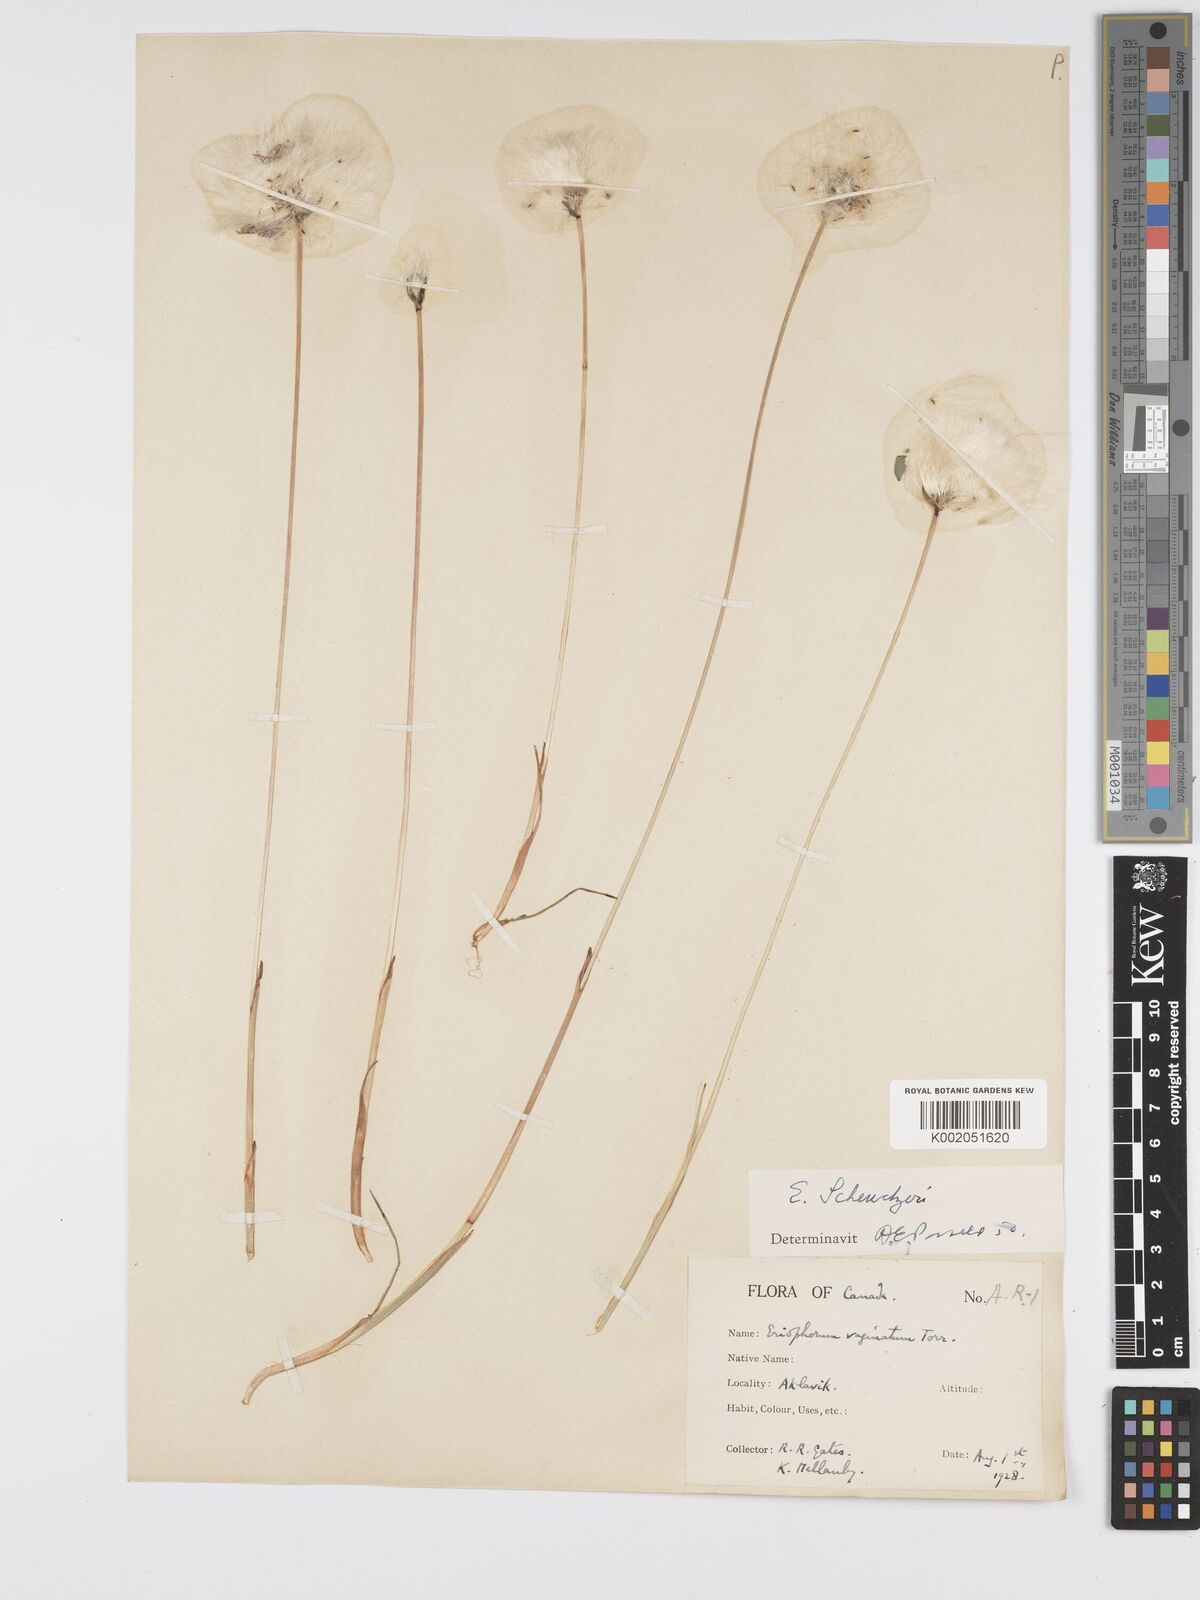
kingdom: Plantae
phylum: Tracheophyta
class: Liliopsida
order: Poales
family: Cyperaceae
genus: Eriophorum
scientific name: Eriophorum scheuchzeri
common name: Scheuchzer's cottongrass
